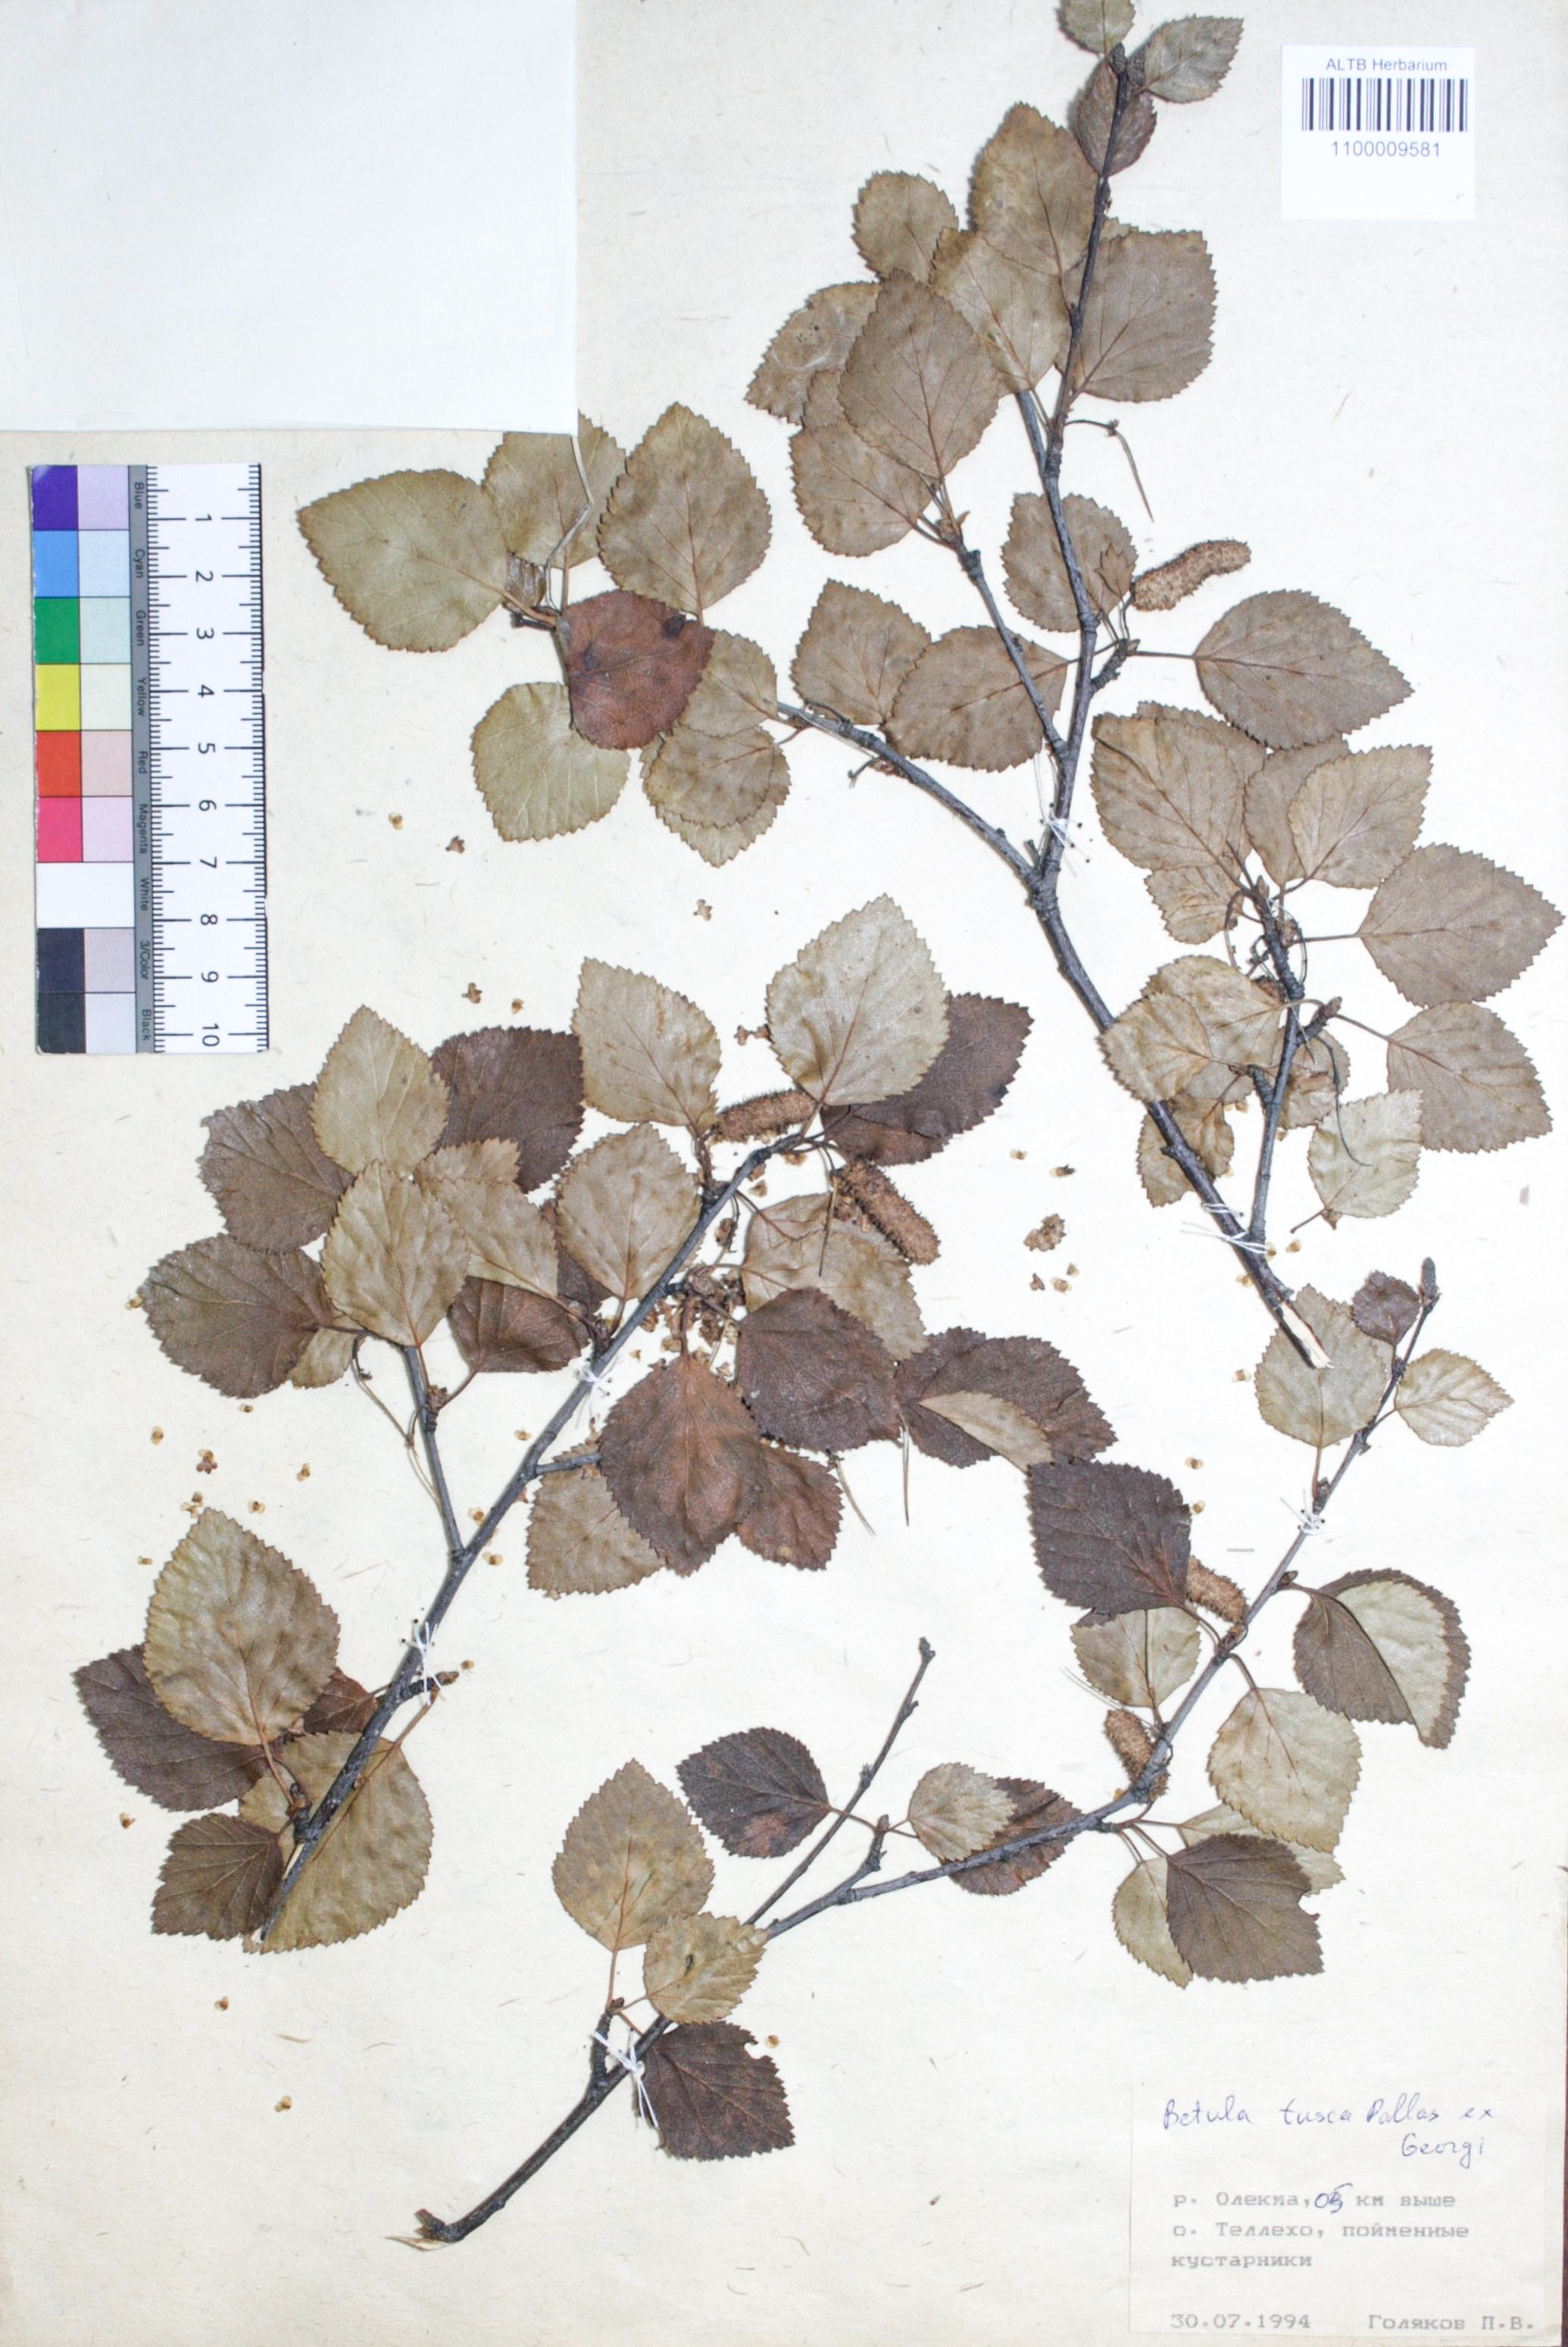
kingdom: Plantae
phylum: Tracheophyta
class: Magnoliopsida
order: Fagales
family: Betulaceae
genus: Betula
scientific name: Betula fusca
